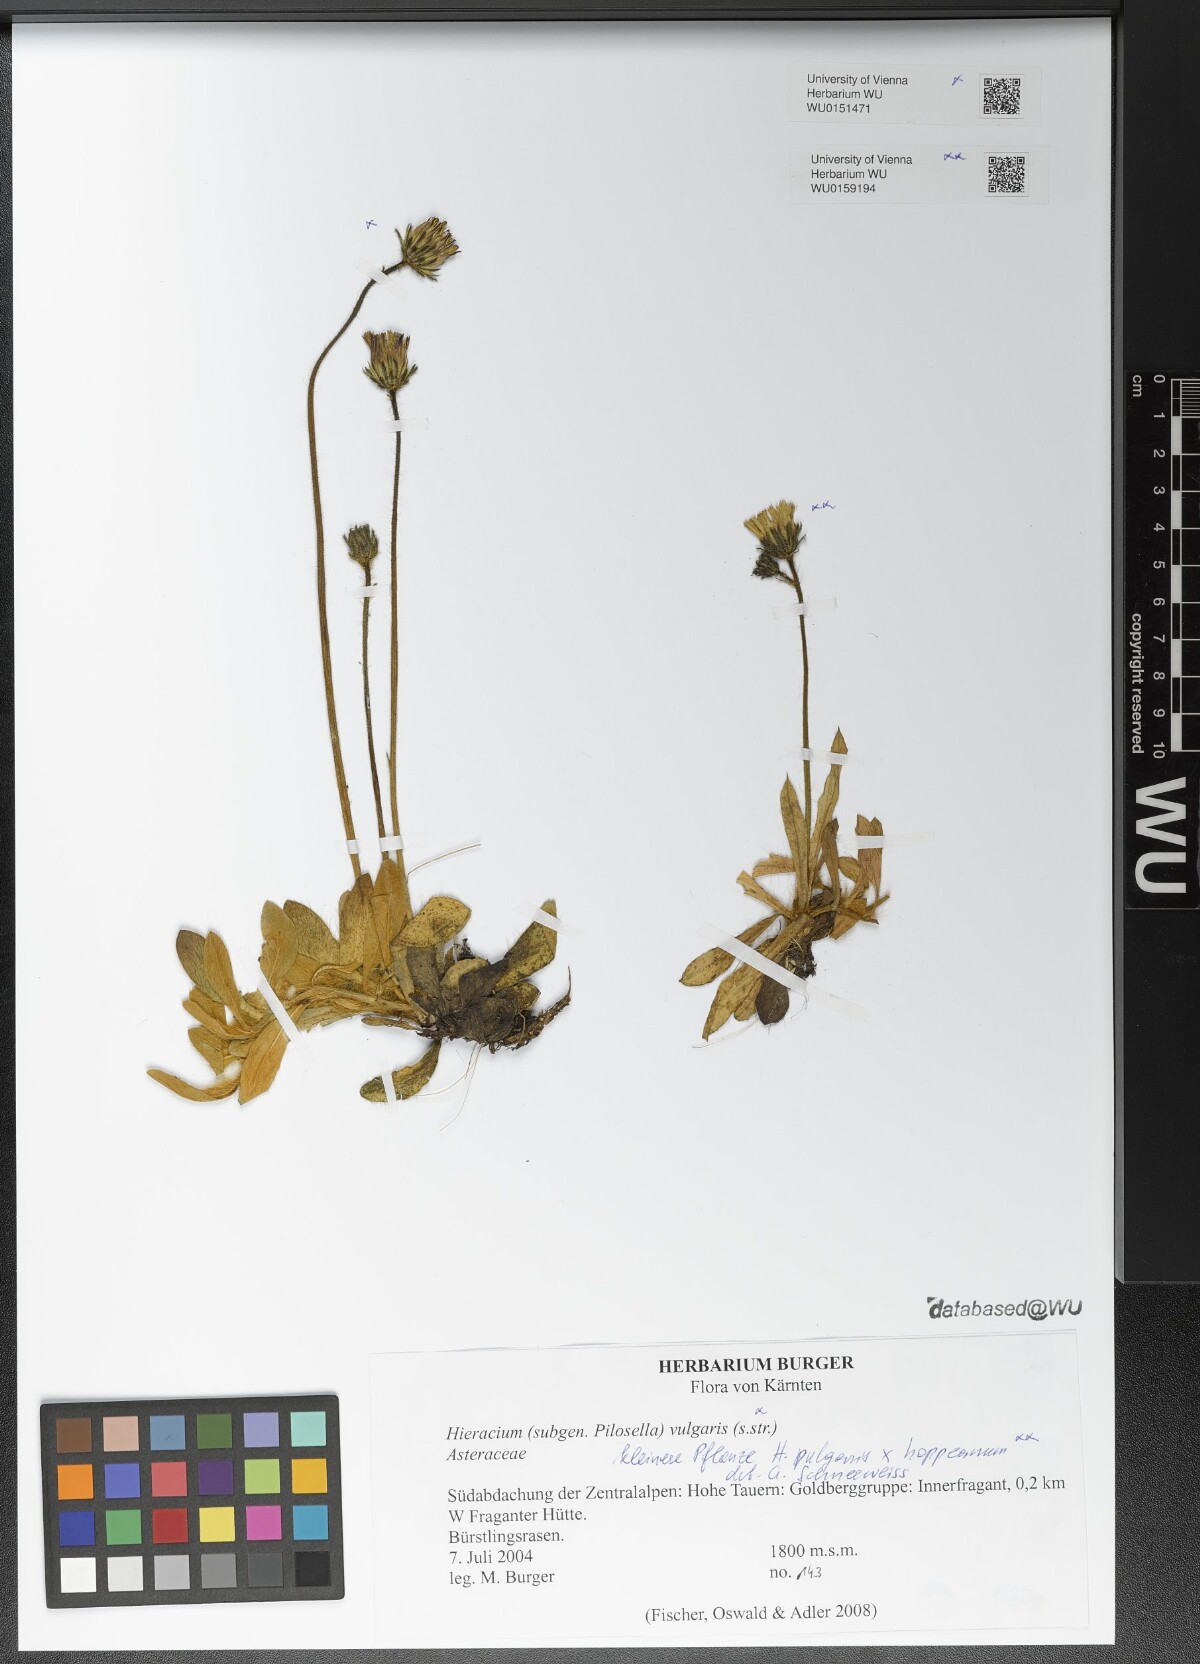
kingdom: Plantae
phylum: Tracheophyta
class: Magnoliopsida
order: Asterales
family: Asteraceae
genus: Hieracium
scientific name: Hieracium
